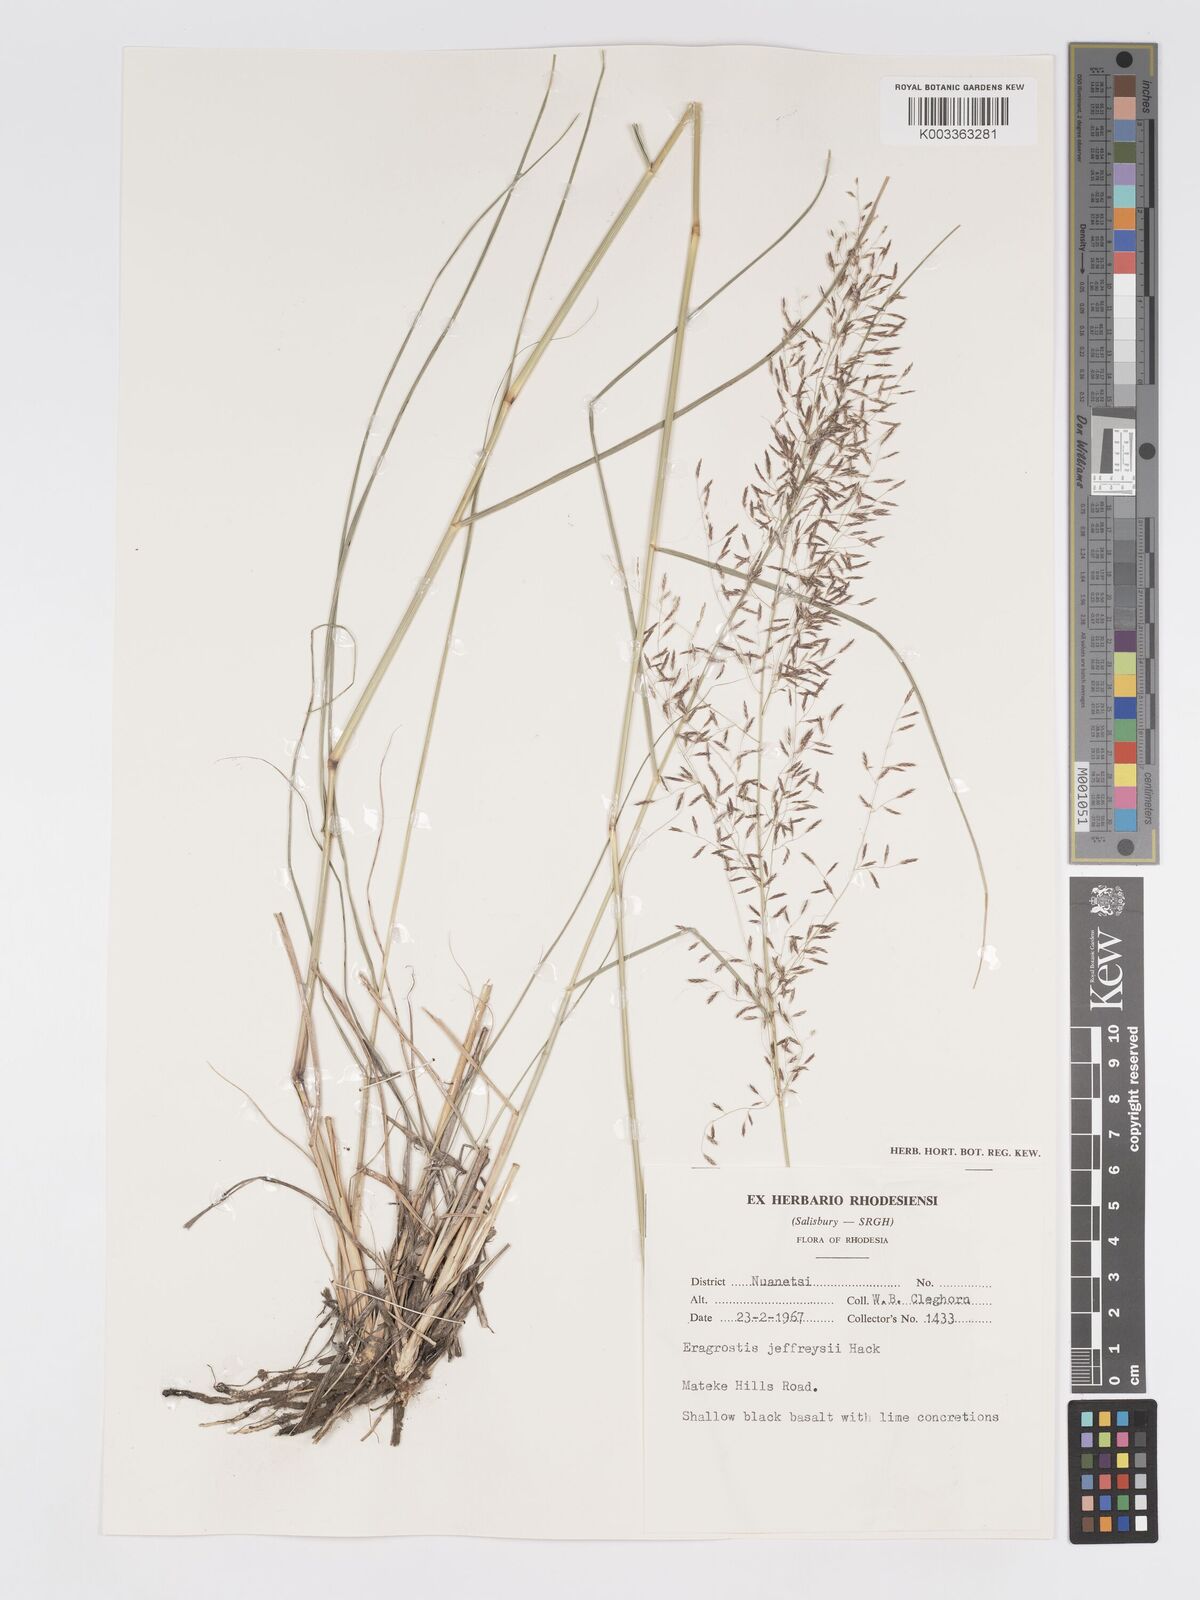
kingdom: Plantae
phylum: Tracheophyta
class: Liliopsida
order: Poales
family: Poaceae
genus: Eragrostis
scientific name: Eragrostis curvula
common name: African love-grass
